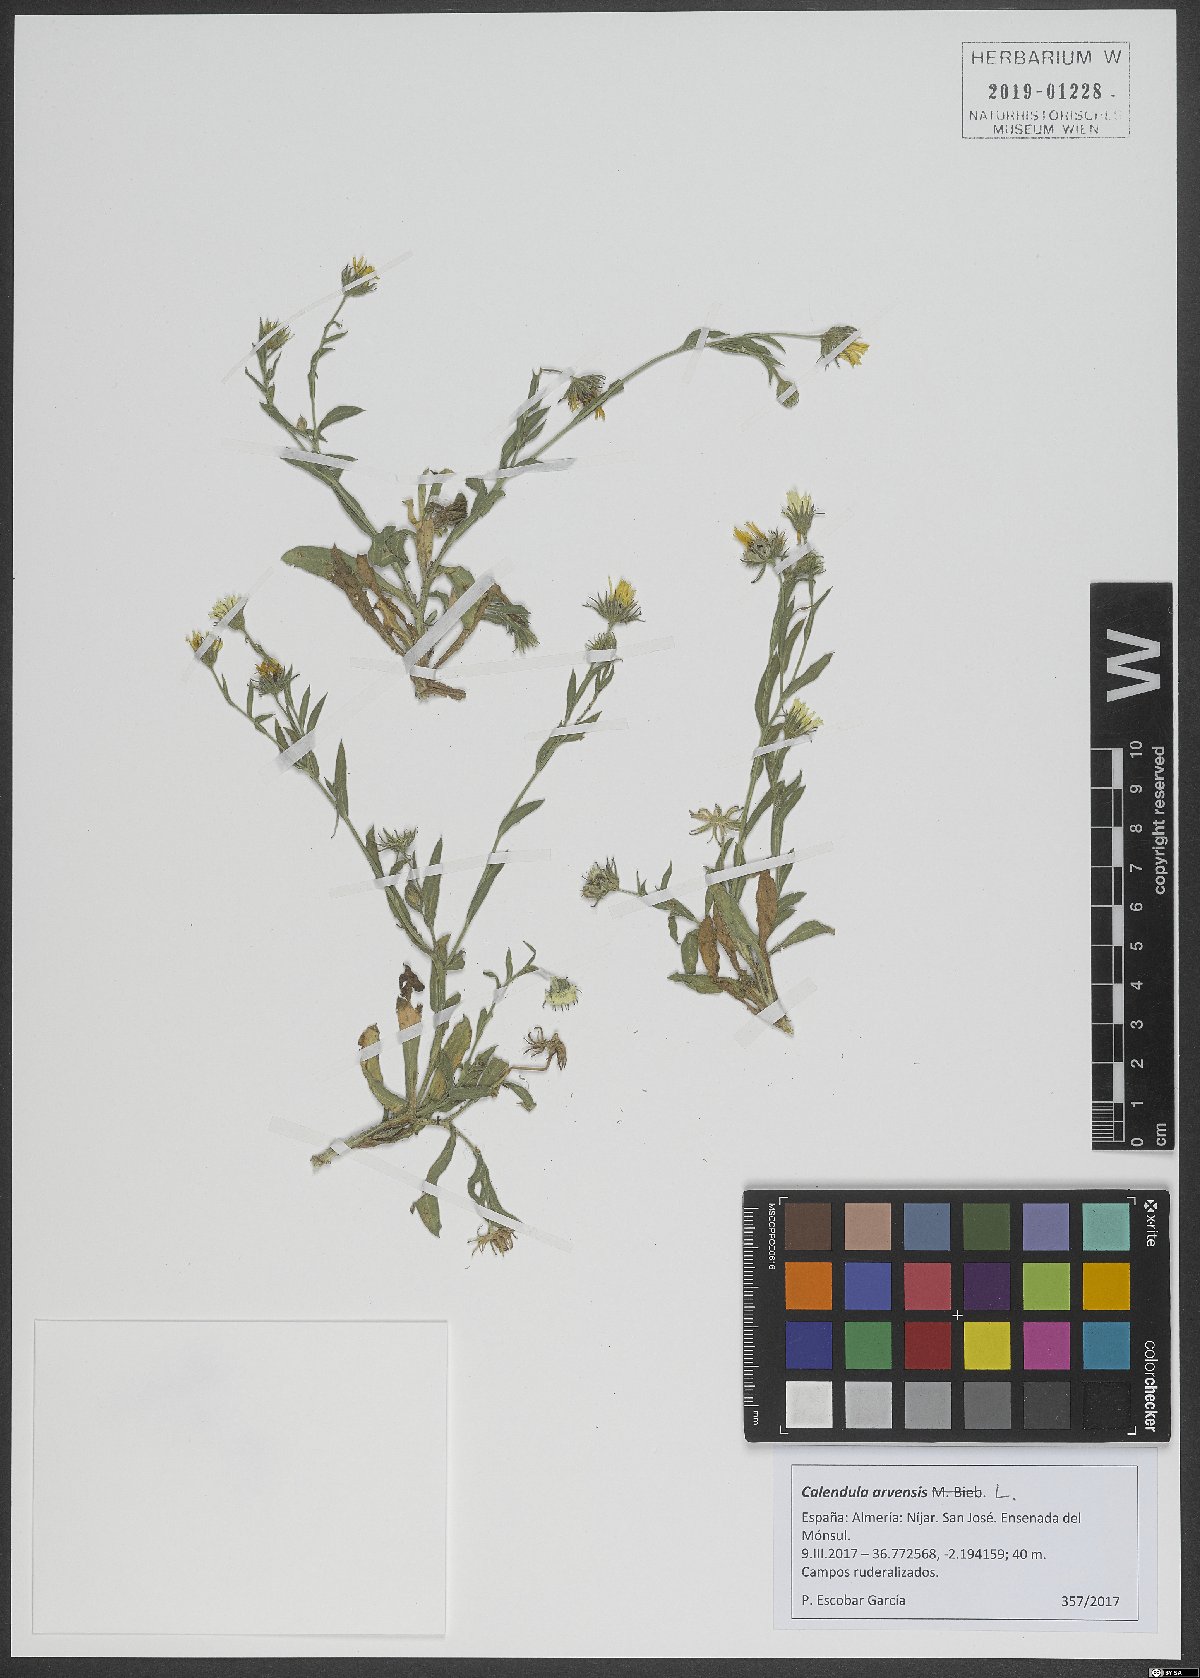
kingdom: Plantae
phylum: Tracheophyta
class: Magnoliopsida
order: Asterales
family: Asteraceae
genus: Calendula
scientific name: Calendula arvensis
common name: Field marigold
